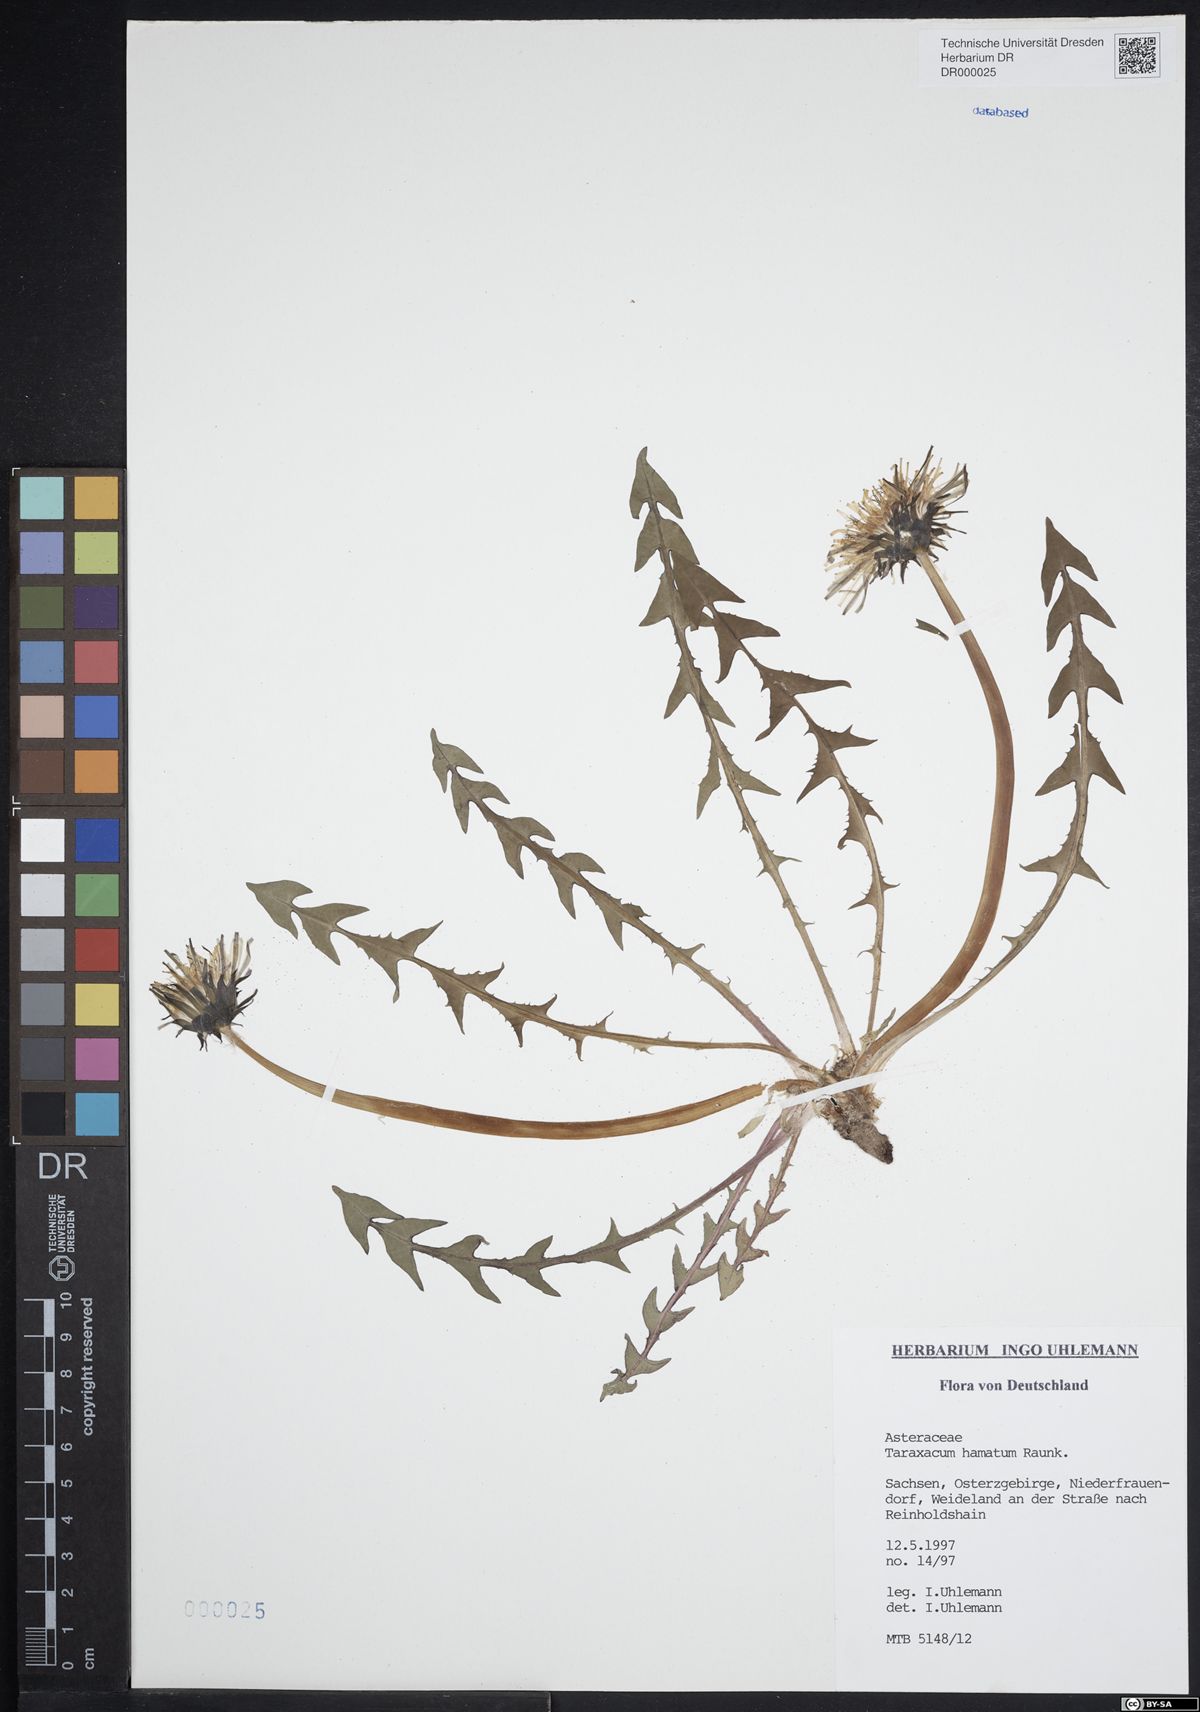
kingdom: Plantae
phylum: Tracheophyta
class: Magnoliopsida
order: Asterales
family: Asteraceae
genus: Taraxacum
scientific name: Taraxacum hamatum
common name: Hook-lobed dandelion
